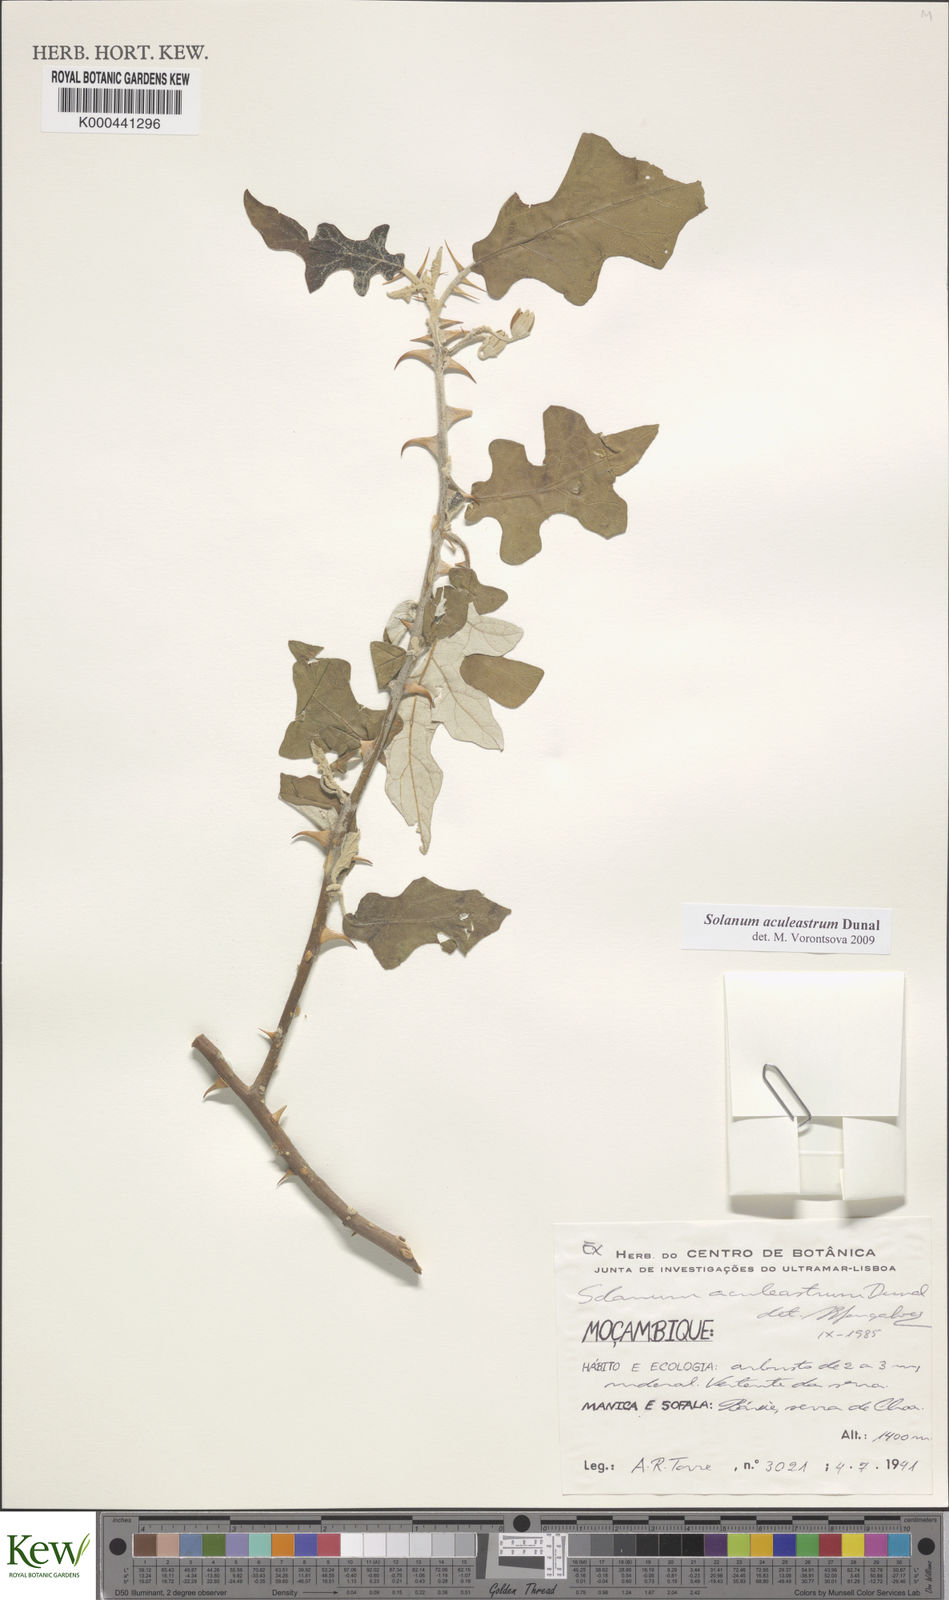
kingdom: Plantae
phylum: Tracheophyta
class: Magnoliopsida
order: Solanales
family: Solanaceae
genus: Solanum
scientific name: Solanum aculeastrum
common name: Goat bitter-apple
